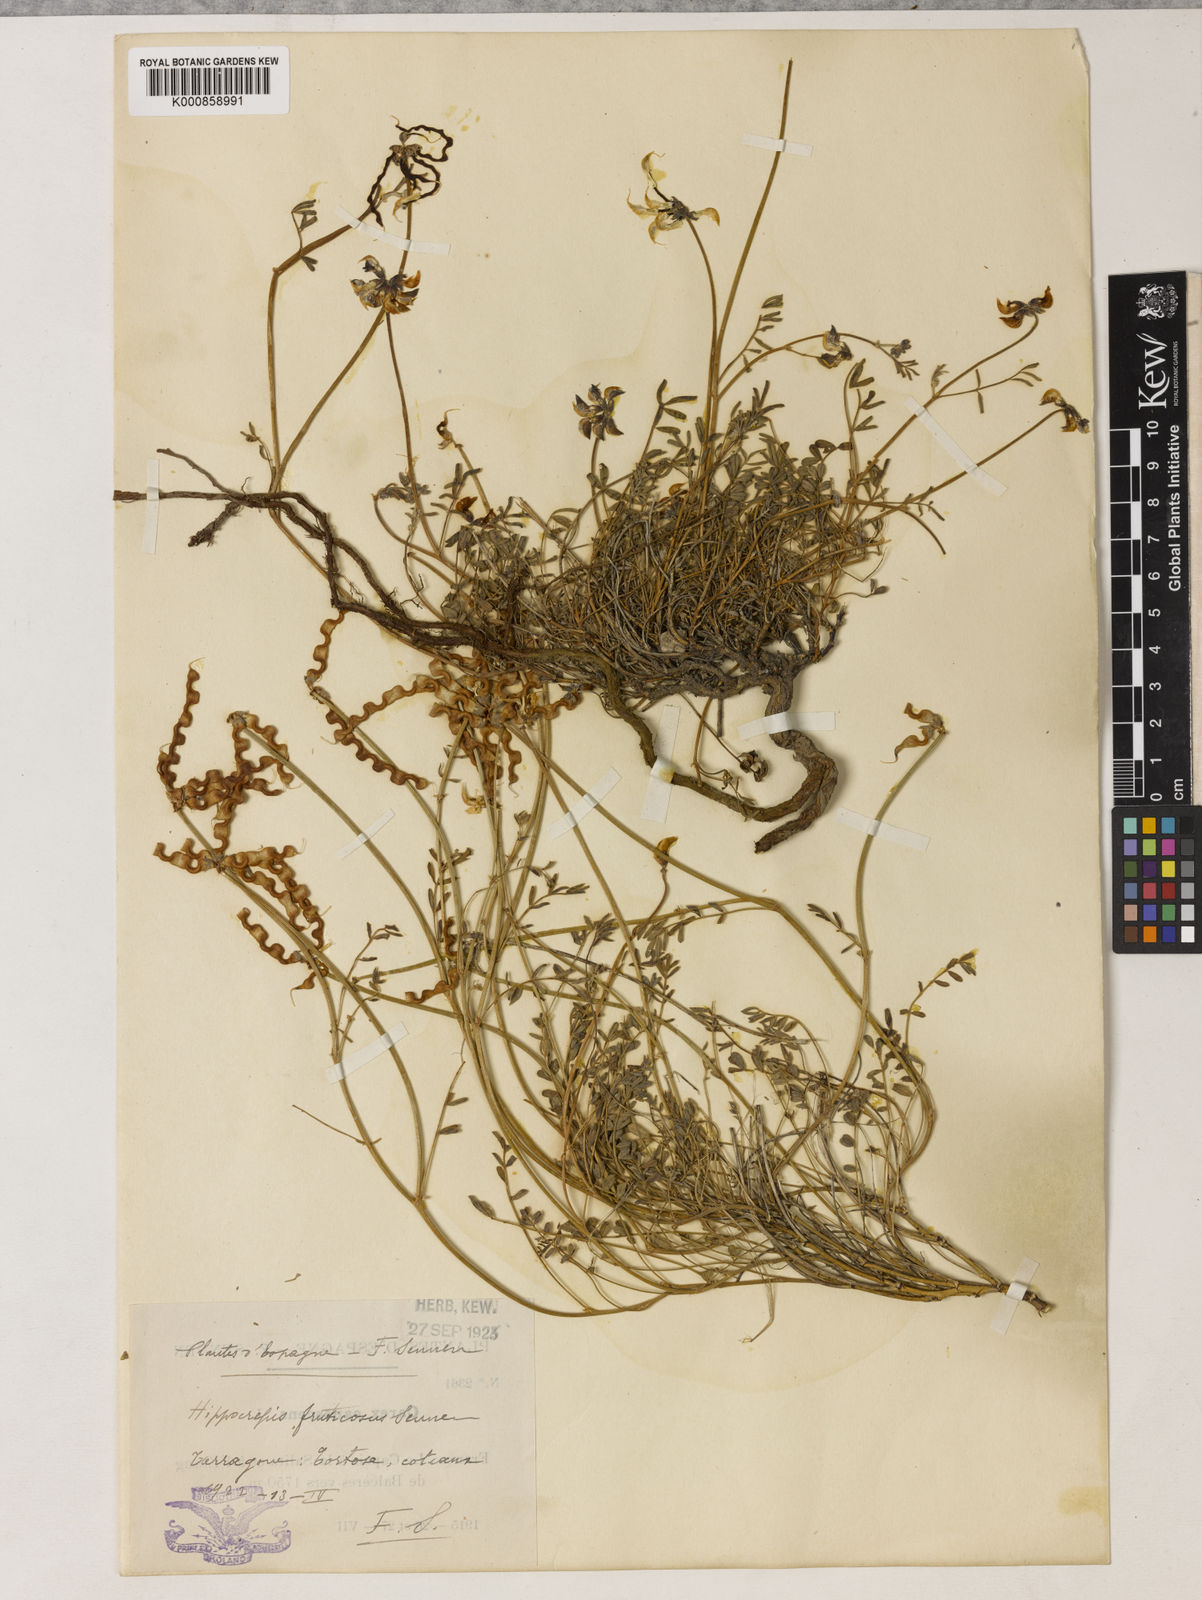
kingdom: Plantae
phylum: Tracheophyta
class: Magnoliopsida
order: Fabales
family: Fabaceae
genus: Hippocrepis
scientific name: Hippocrepis
